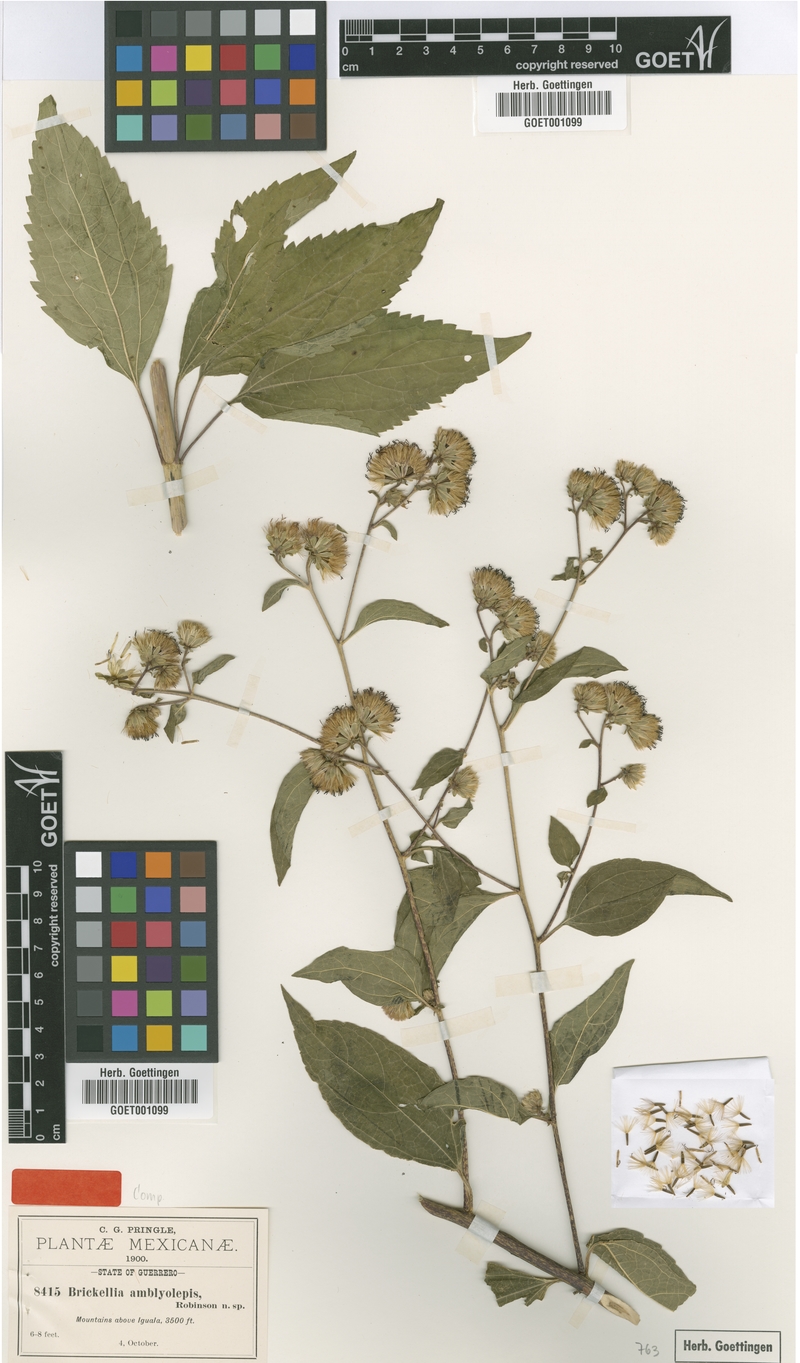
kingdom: Plantae
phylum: Tracheophyta
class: Magnoliopsida
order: Asterales
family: Asteraceae
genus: Steviopsis
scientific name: Steviopsis amblyolepis
